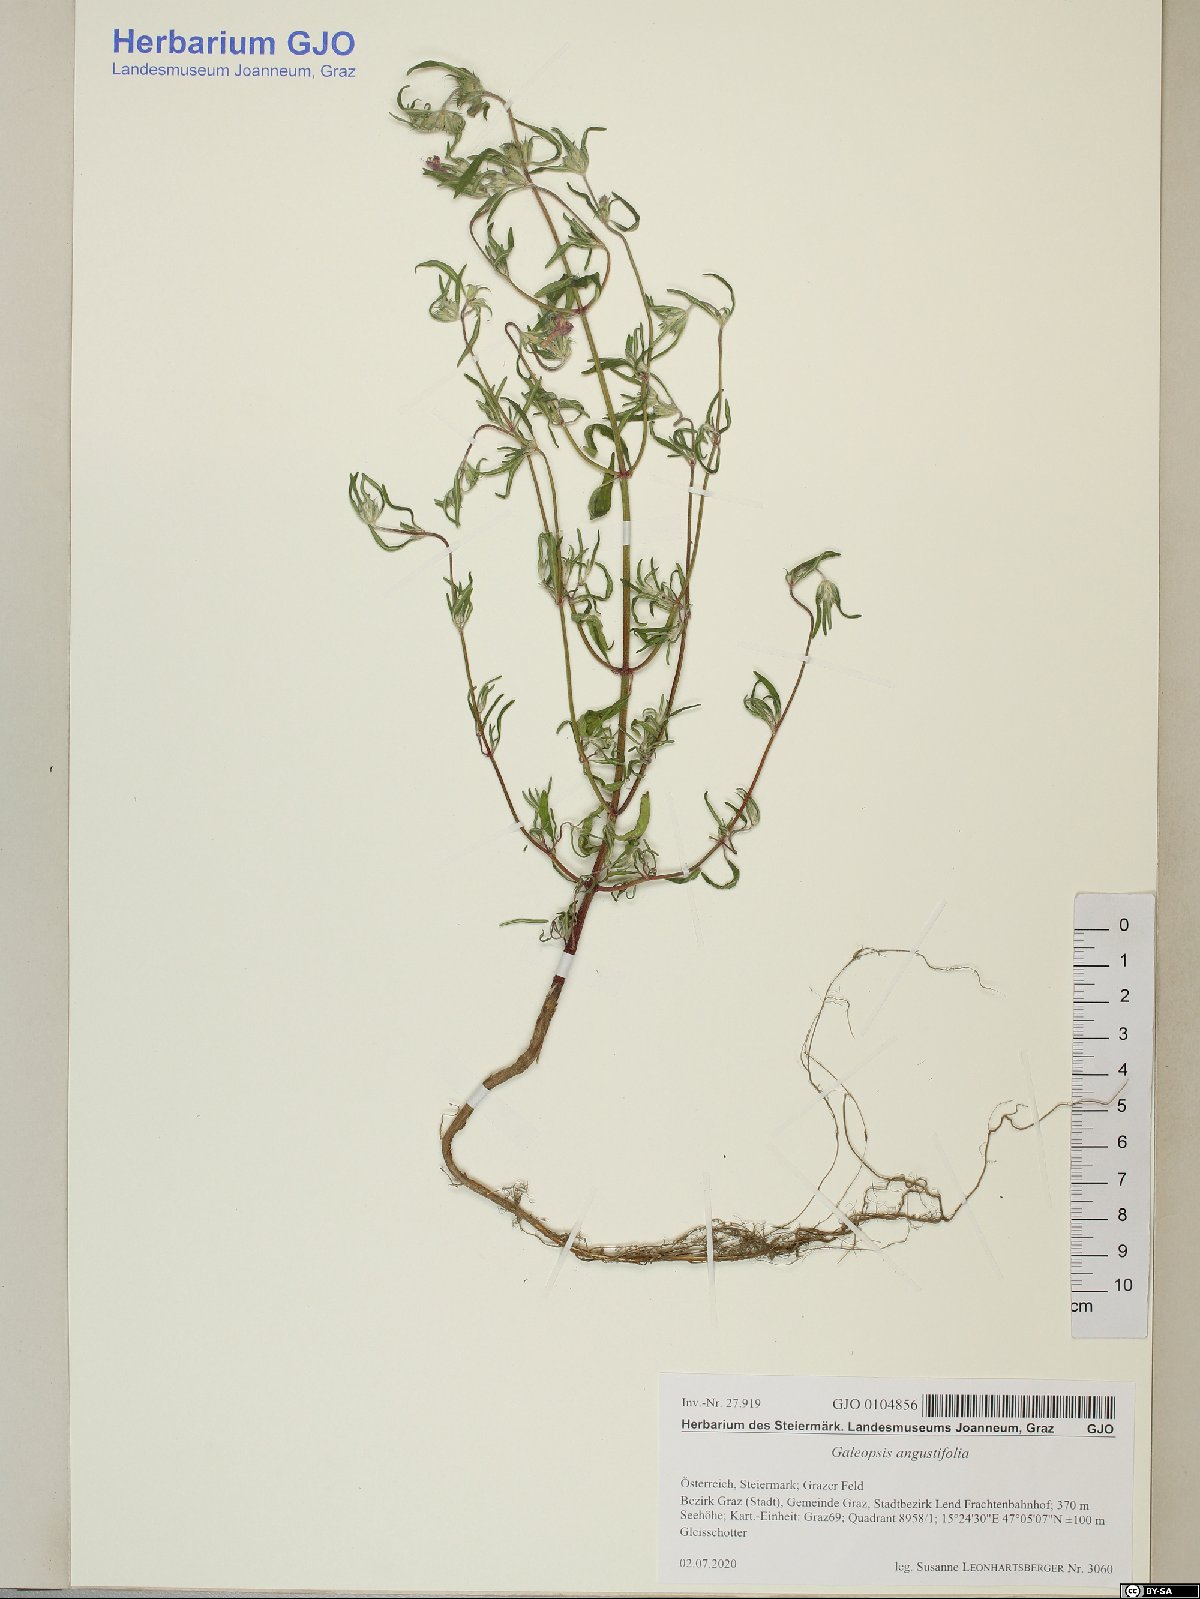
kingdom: Plantae
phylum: Tracheophyta
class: Magnoliopsida
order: Lamiales
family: Lamiaceae
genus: Galeopsis
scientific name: Galeopsis angustifolia
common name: Red hemp-nettle
